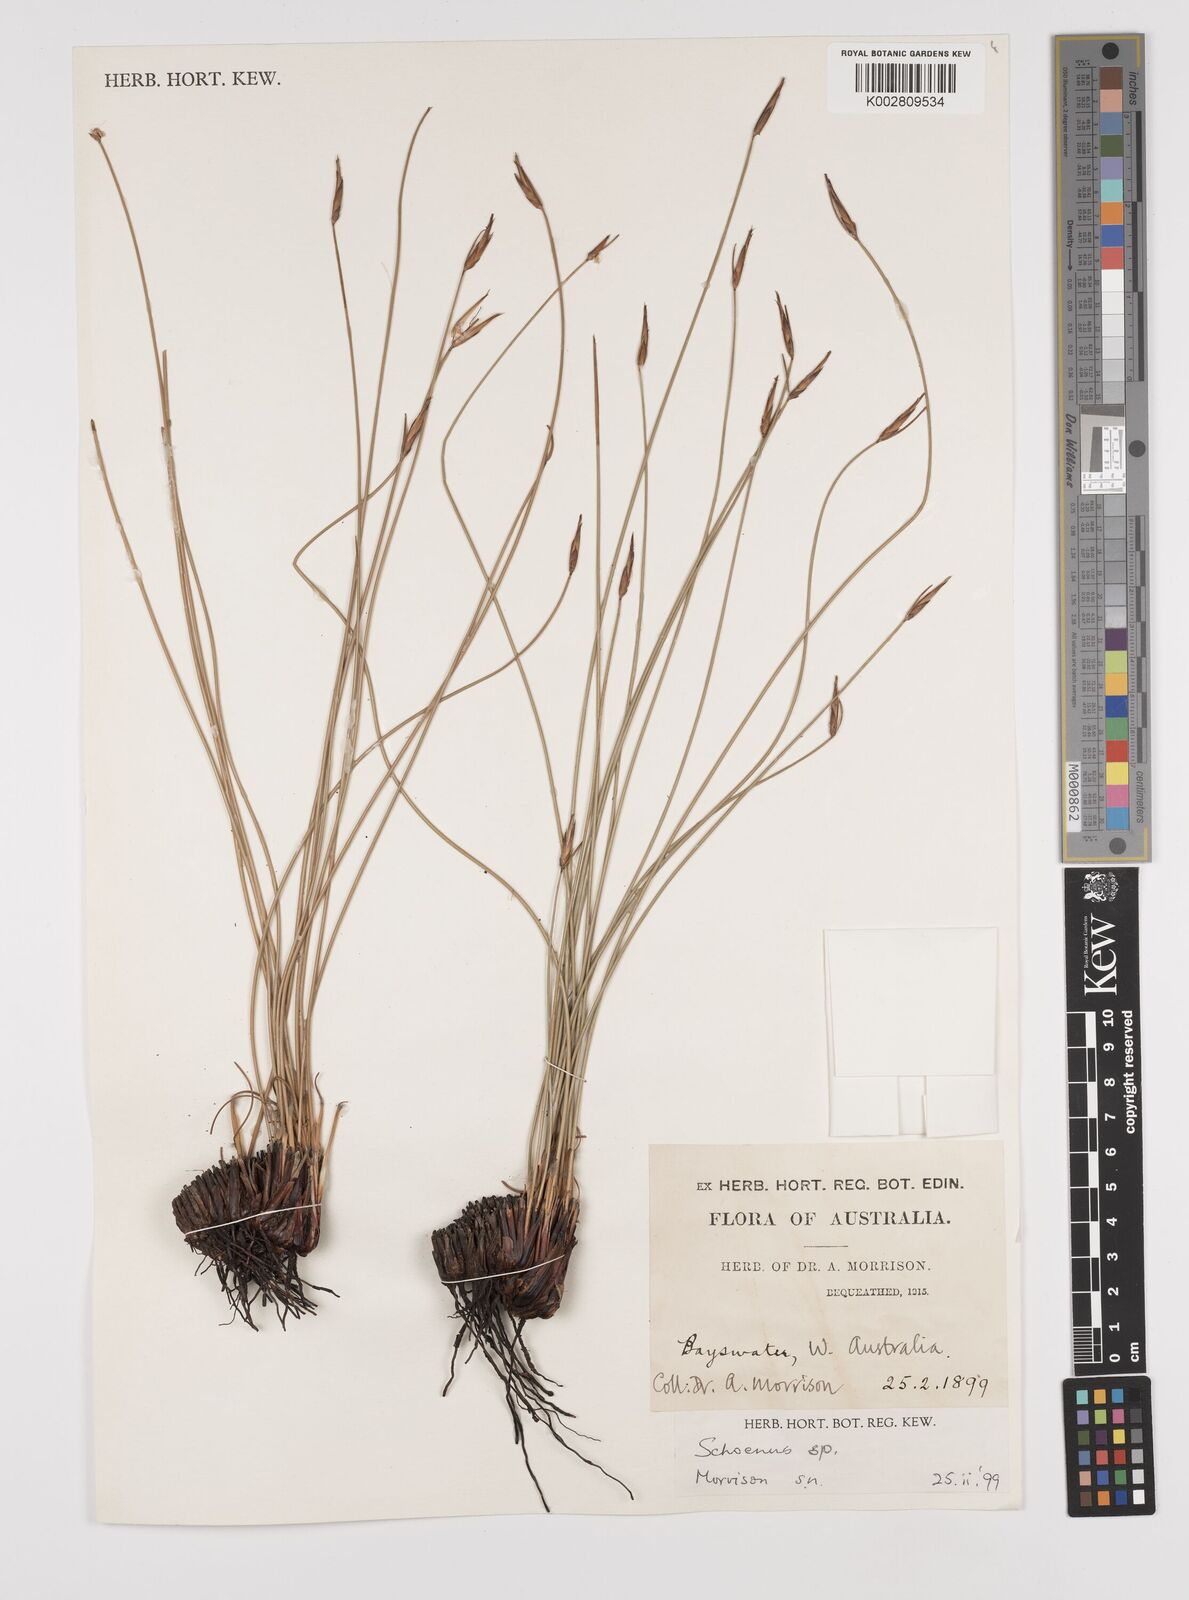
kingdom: Plantae
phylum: Tracheophyta
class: Liliopsida
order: Poales
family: Cyperaceae
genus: Schoenus
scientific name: Schoenus
